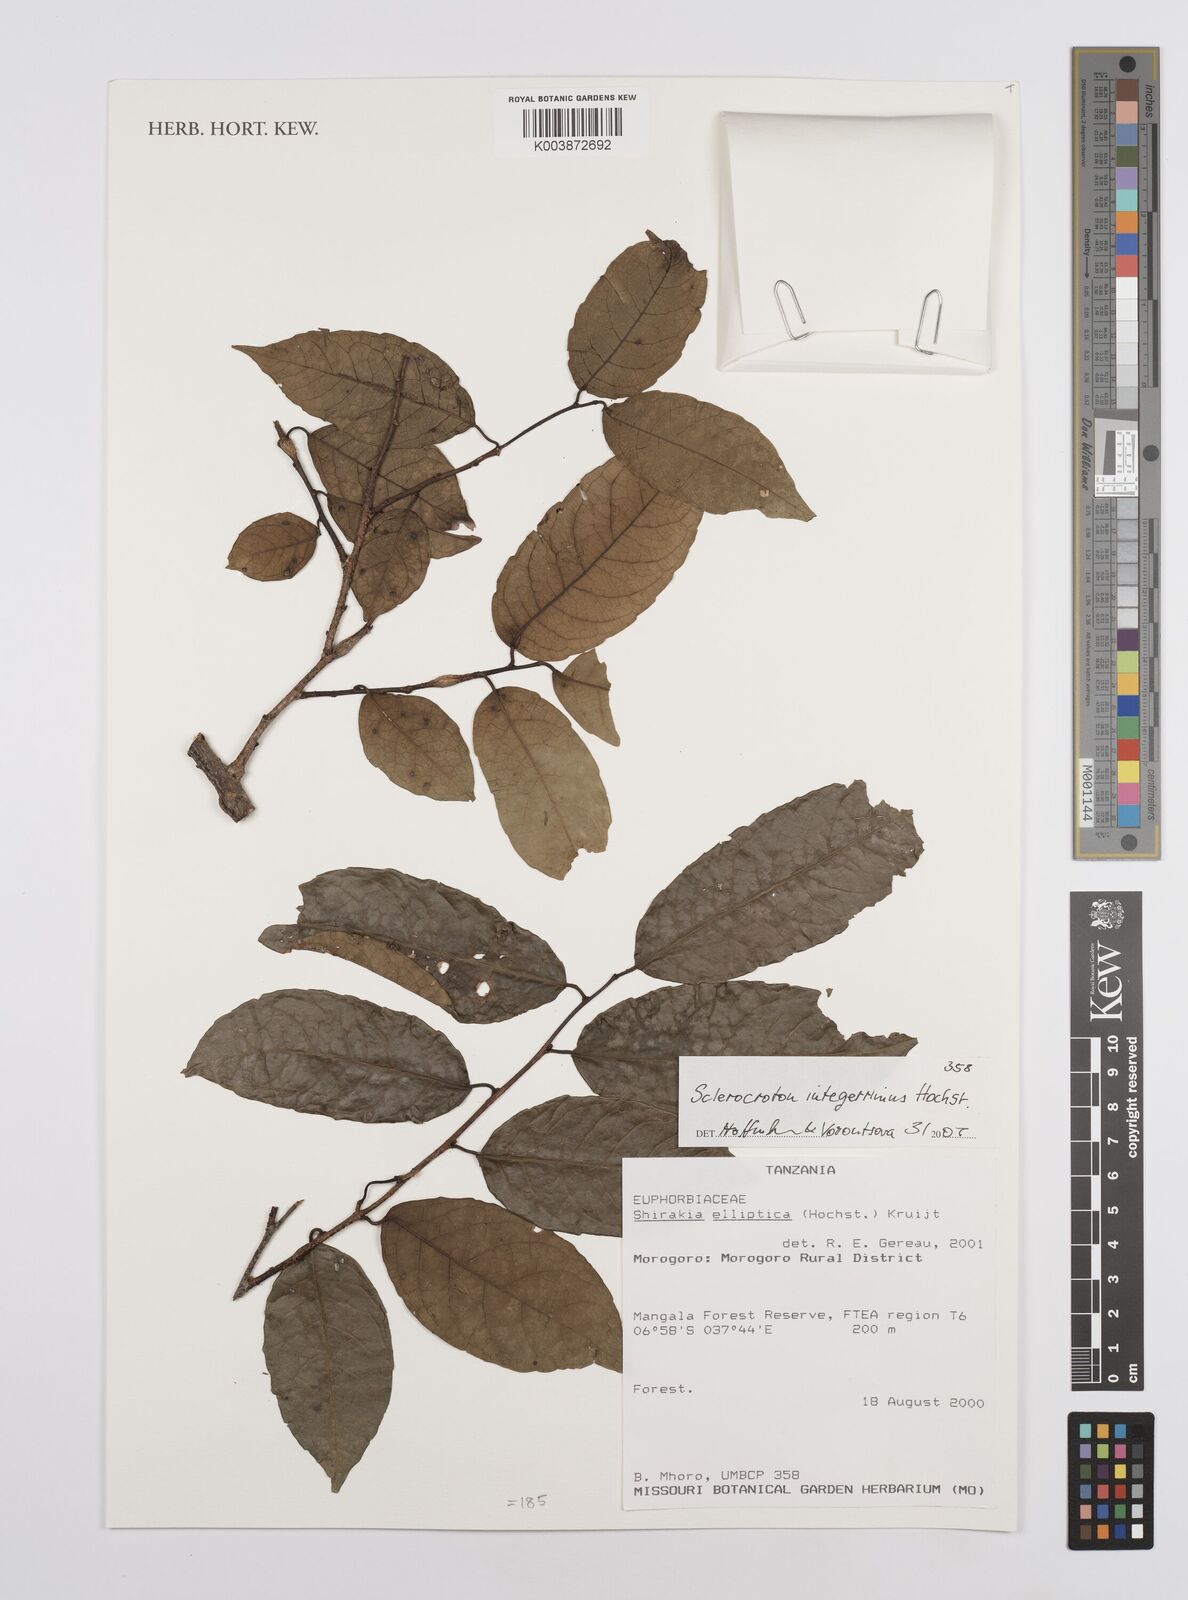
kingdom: Plantae
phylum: Tracheophyta
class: Magnoliopsida
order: Malpighiales
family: Euphorbiaceae
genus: Sclerocroton
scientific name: Sclerocroton integerrimus
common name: Duiker berry
